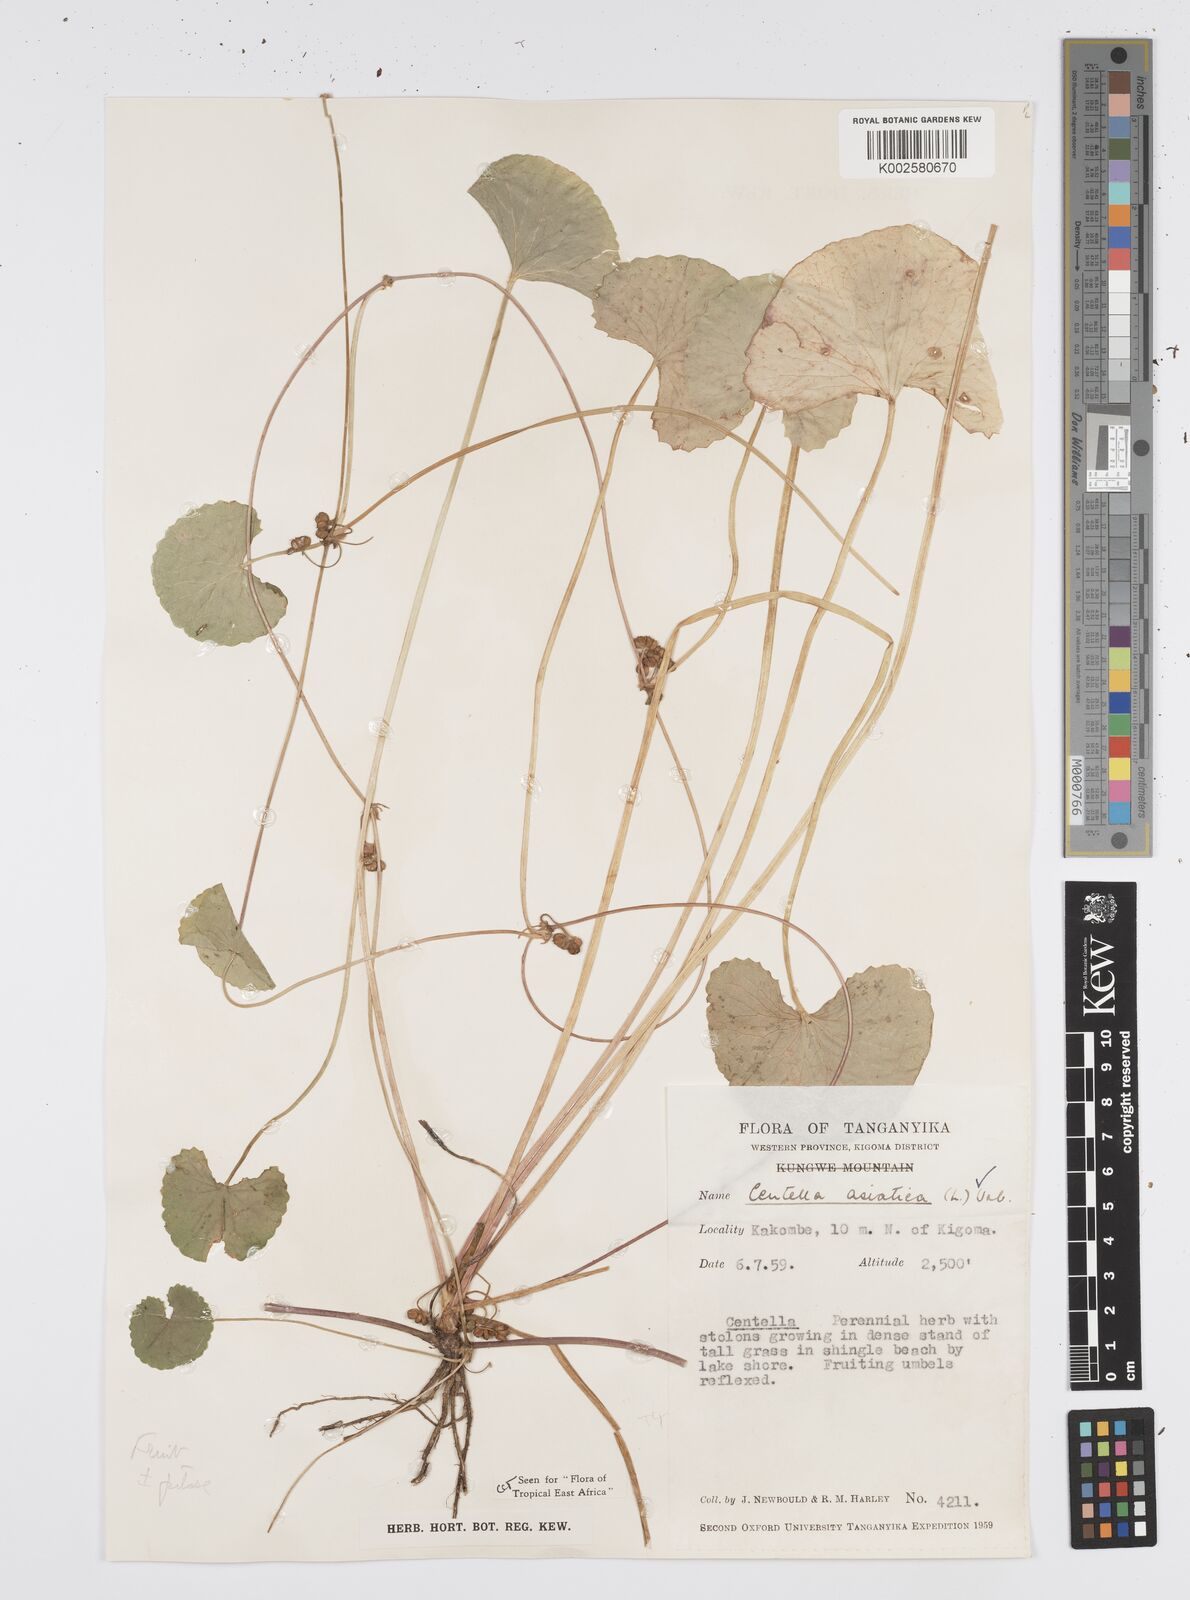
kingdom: Plantae
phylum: Tracheophyta
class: Magnoliopsida
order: Apiales
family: Apiaceae
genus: Centella
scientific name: Centella asiatica
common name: Spadeleaf
